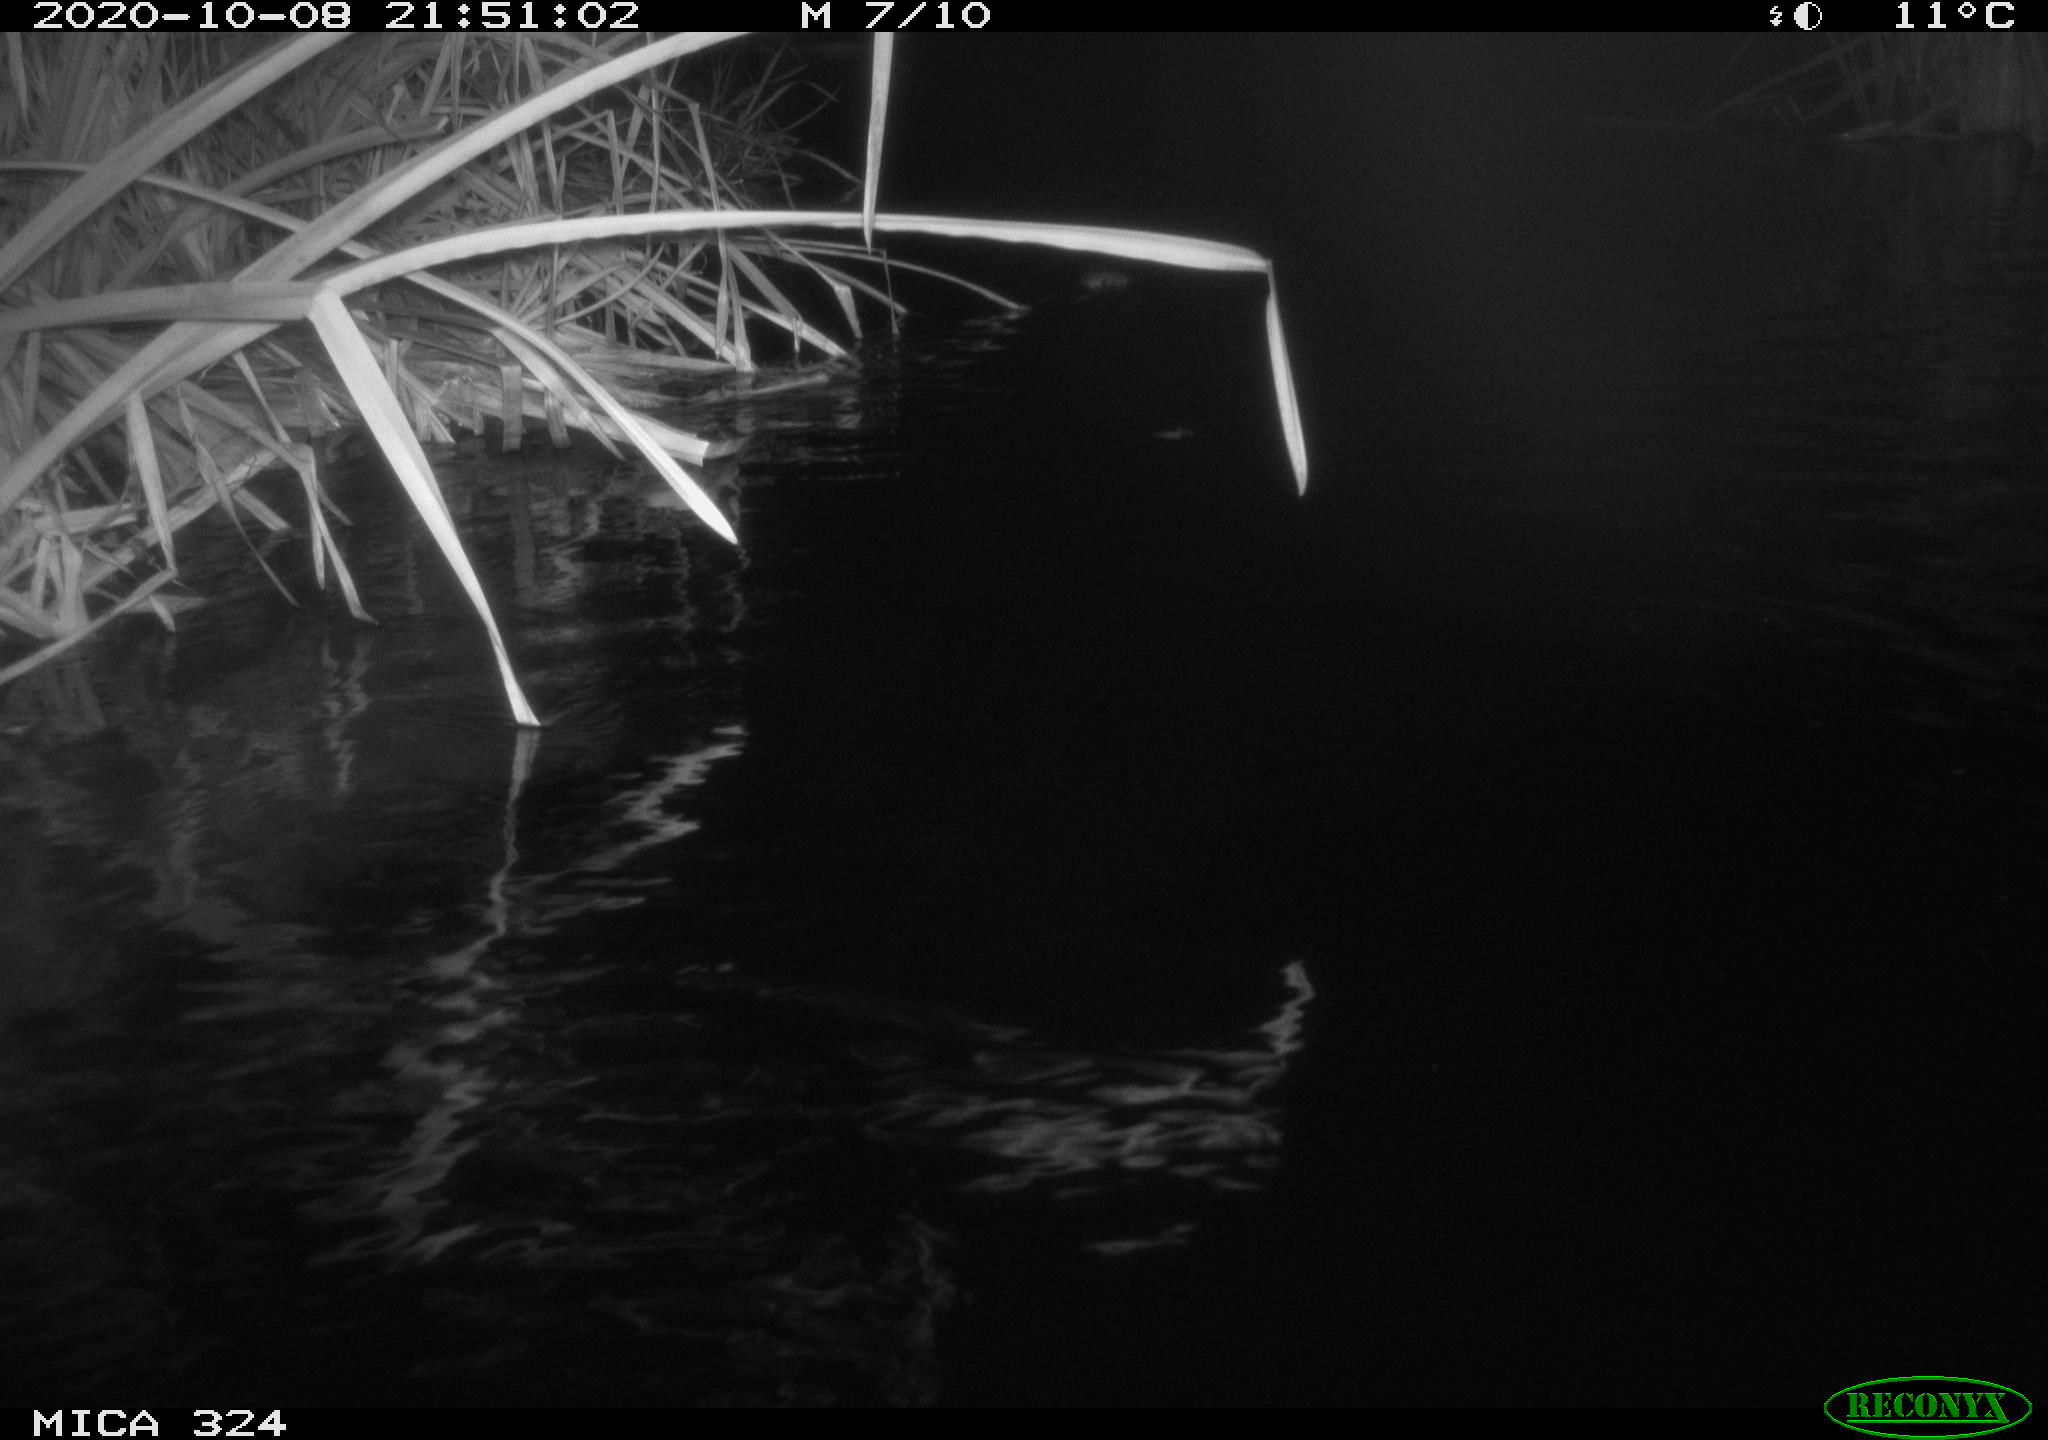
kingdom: Animalia
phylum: Chordata
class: Mammalia
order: Rodentia
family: Cricetidae
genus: Ondatra
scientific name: Ondatra zibethicus
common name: Muskrat
